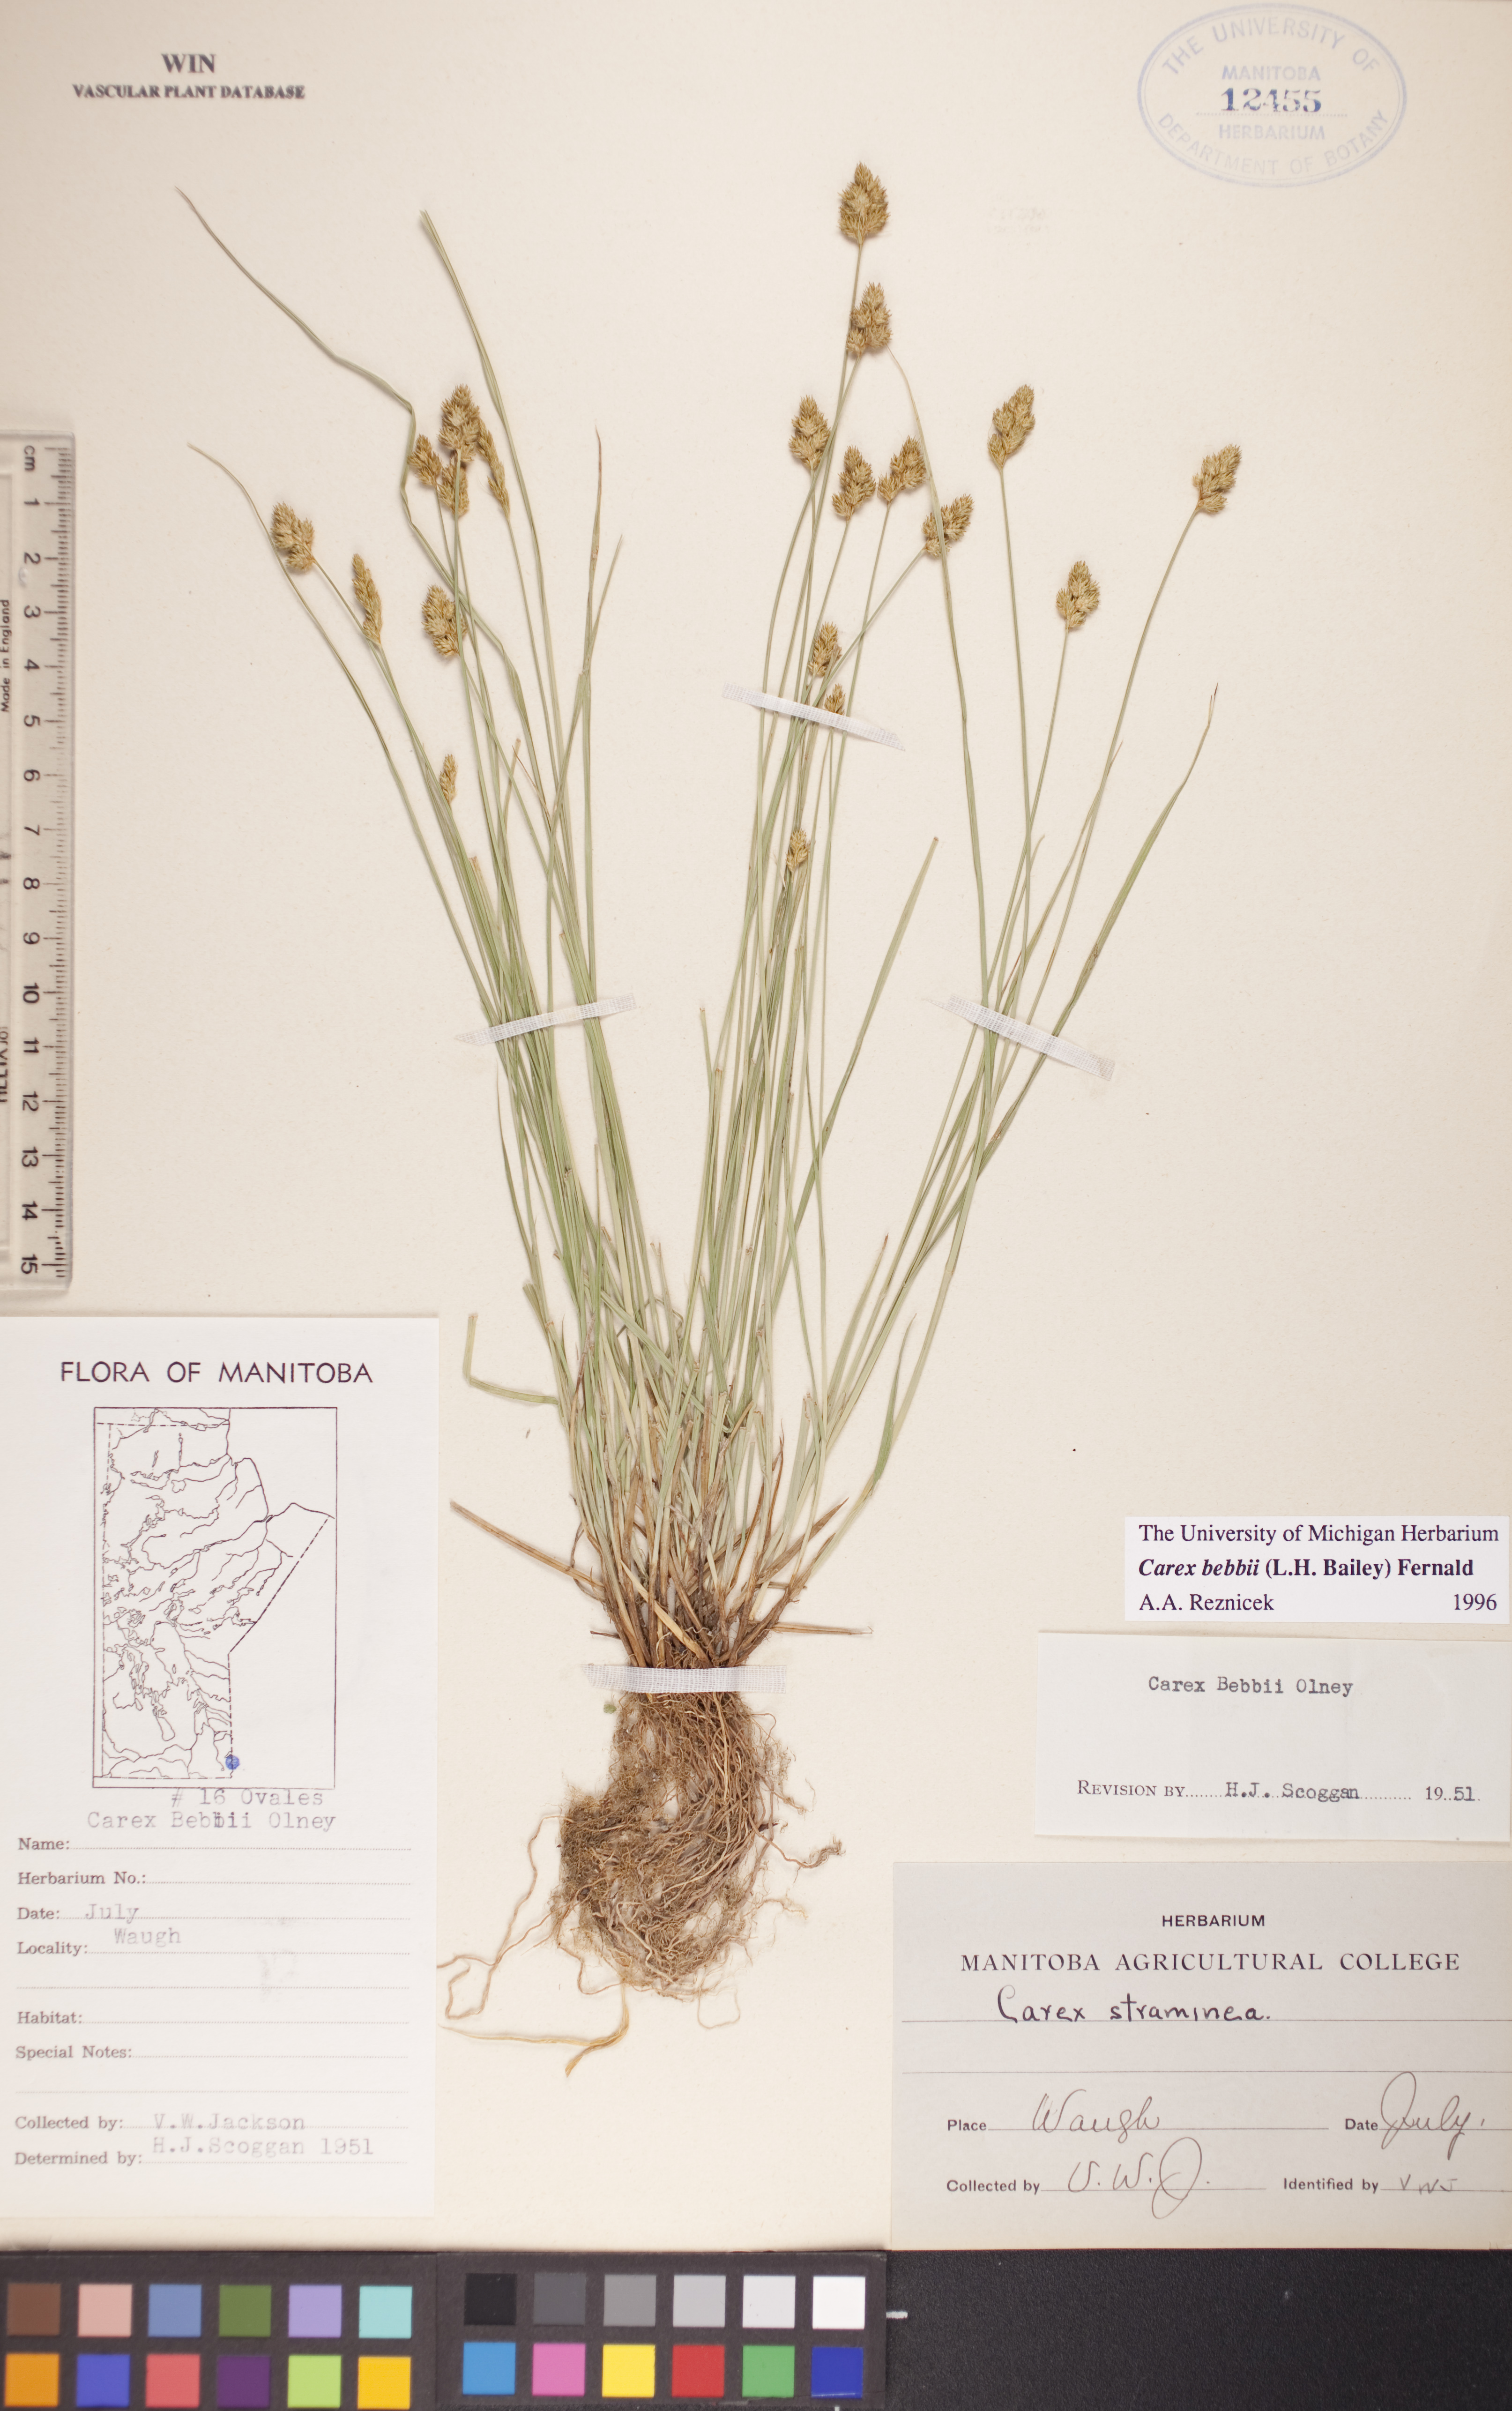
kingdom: Plantae
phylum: Tracheophyta
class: Liliopsida
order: Poales
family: Cyperaceae
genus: Carex
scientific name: Carex bebbii
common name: Bebb's sedge
